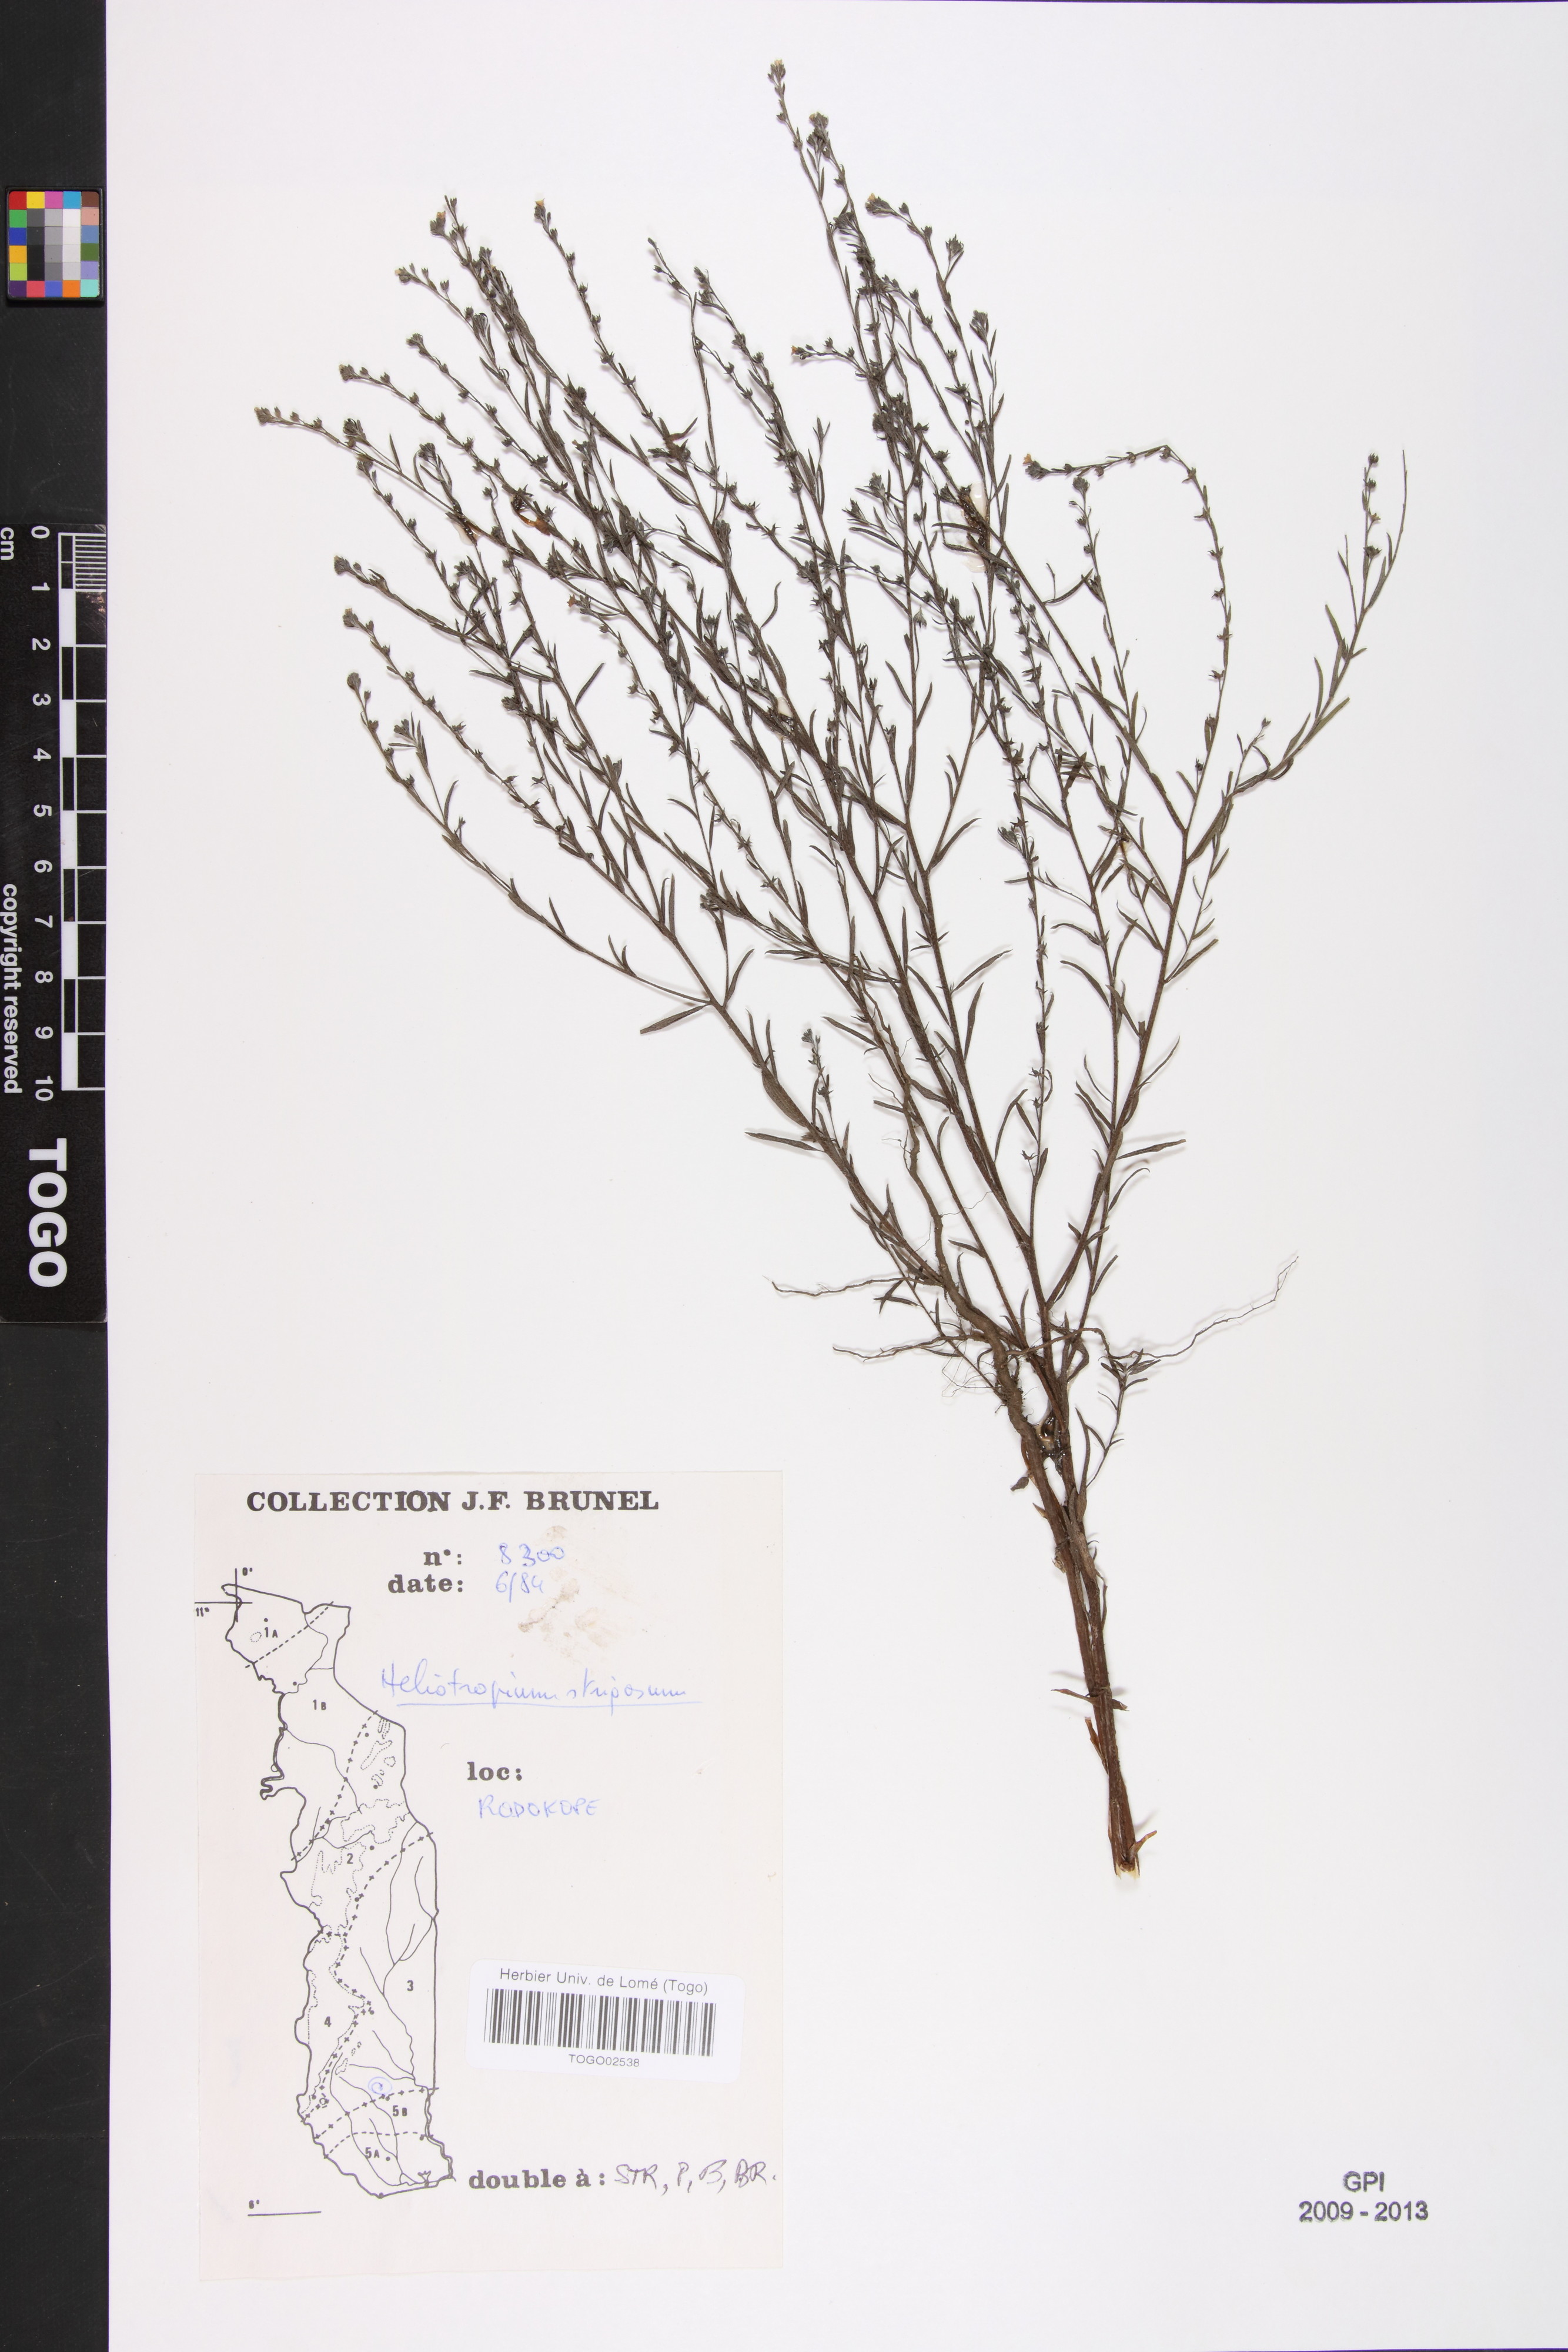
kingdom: Plantae
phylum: Tracheophyta
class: Magnoliopsida
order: Boraginales
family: Heliotropiaceae
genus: Euploca
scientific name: Euploca strigosa
